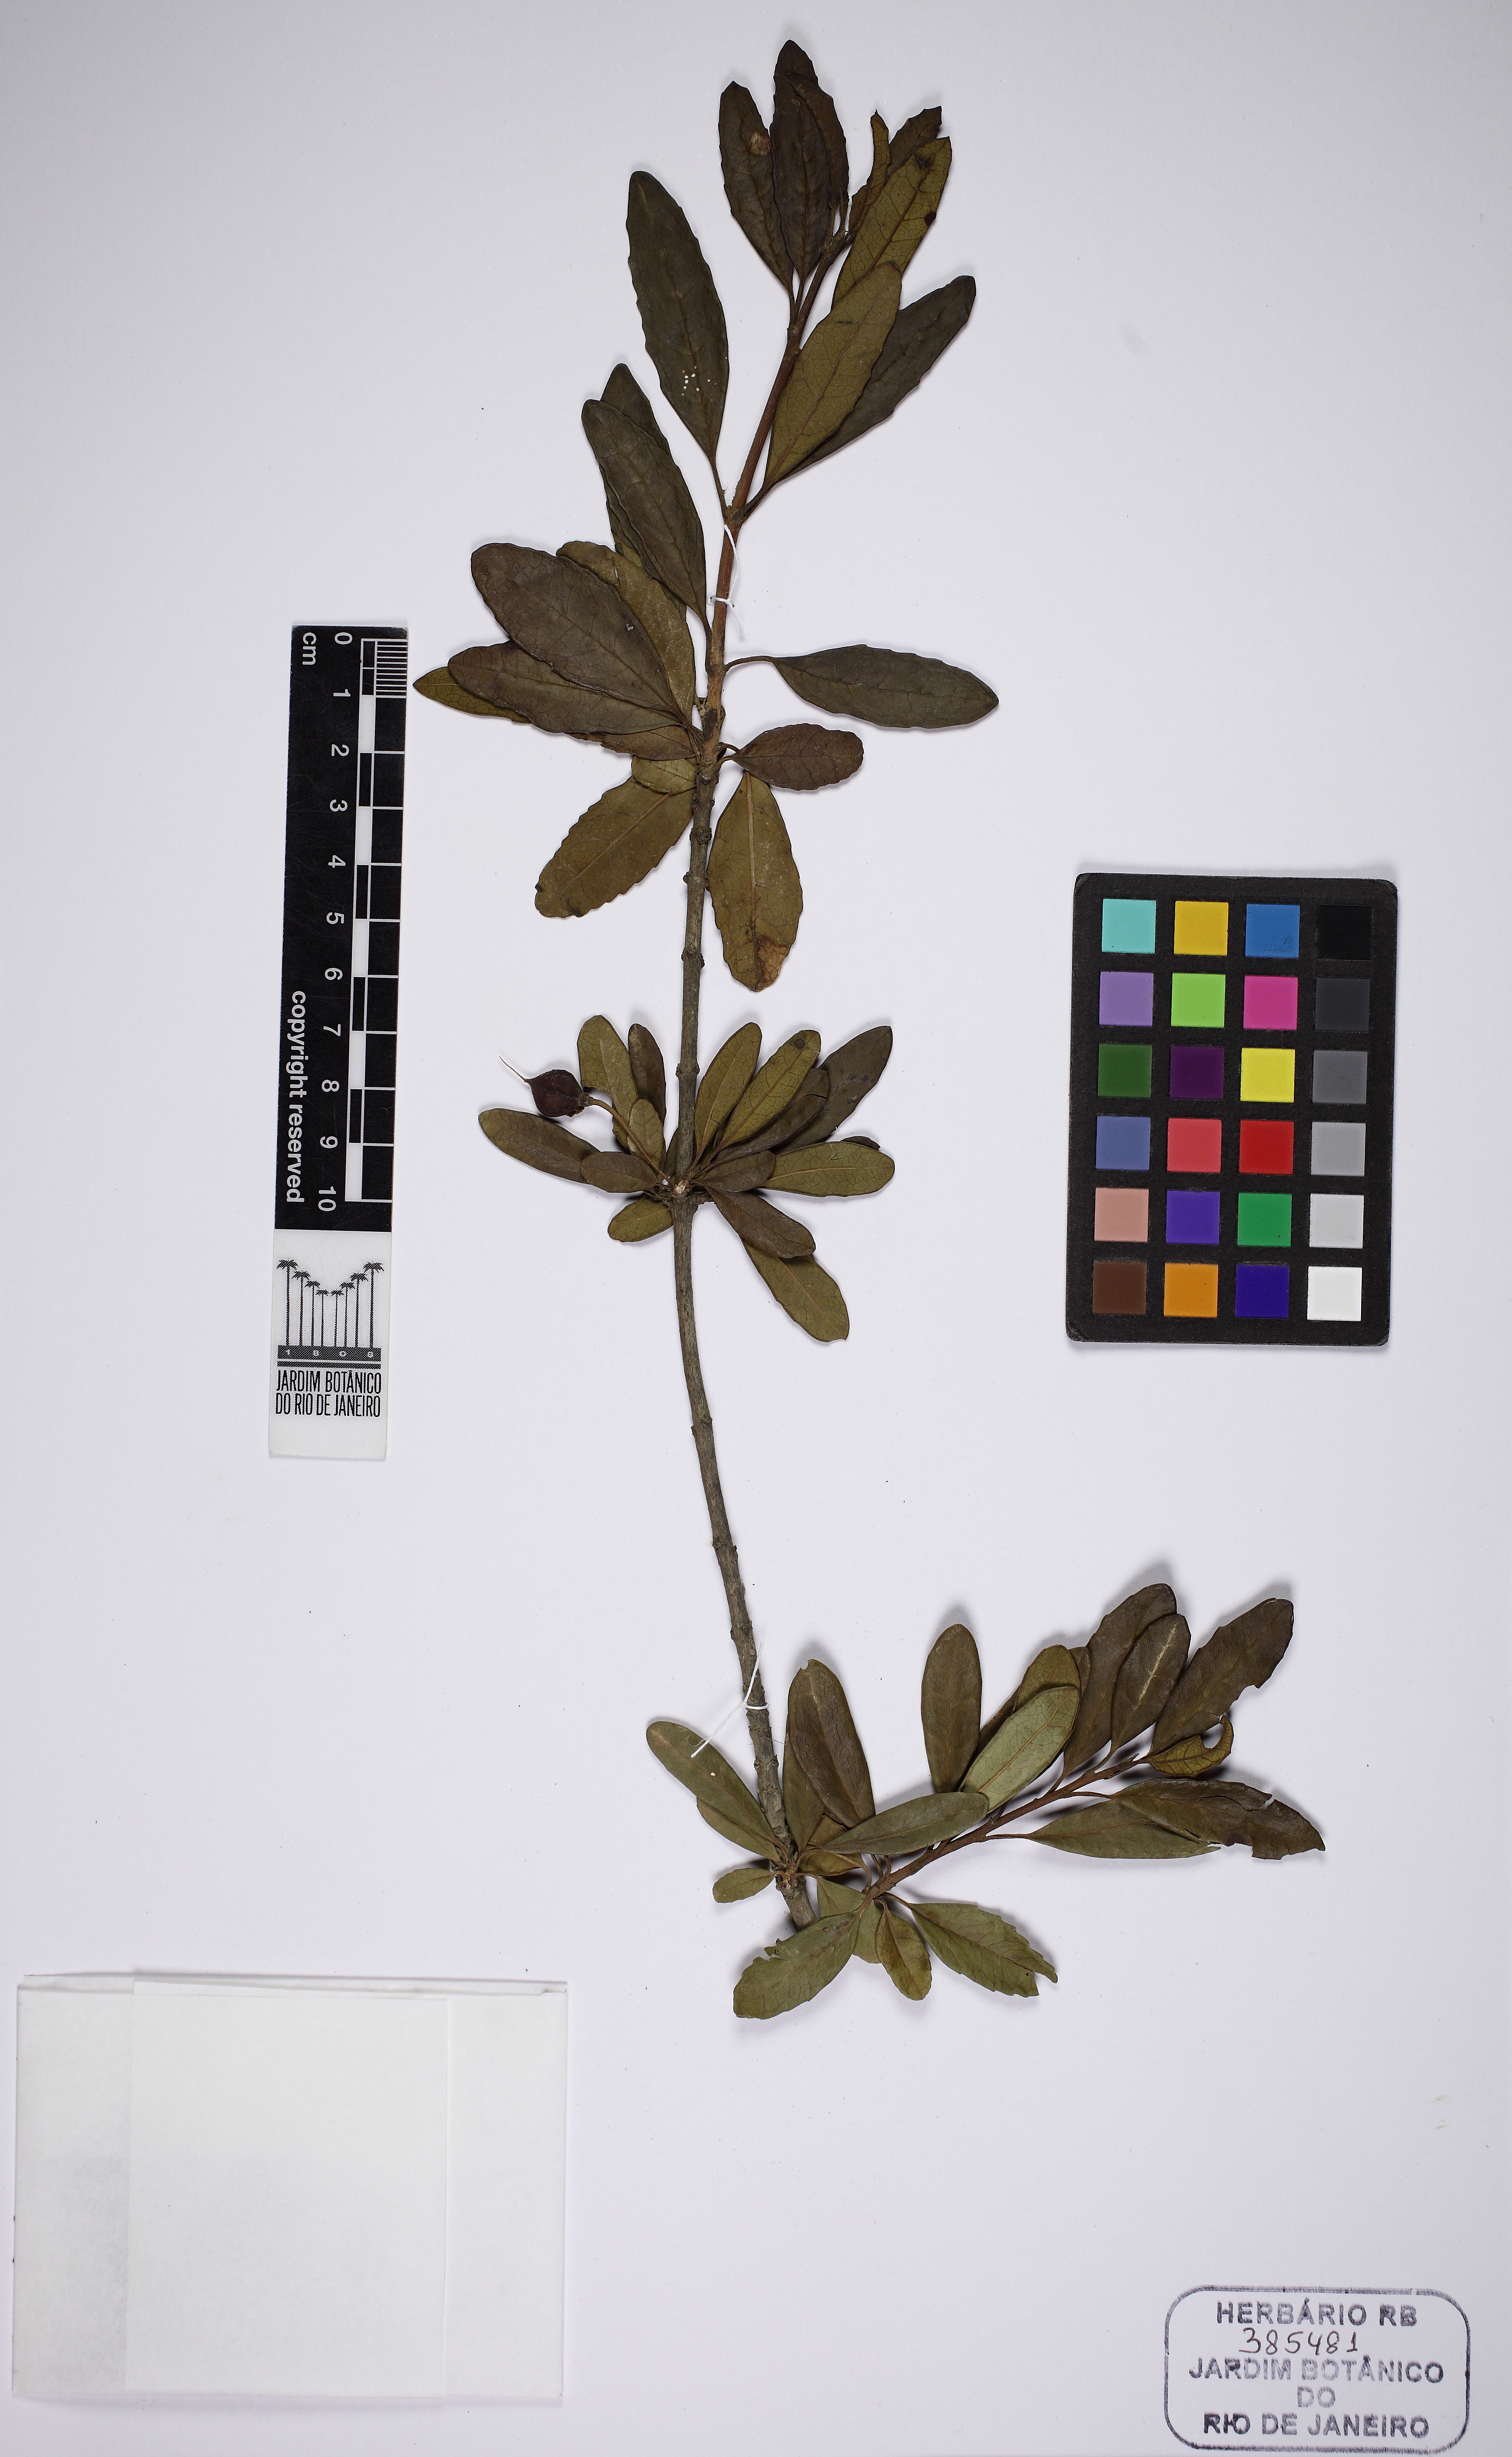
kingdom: Plantae
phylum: Tracheophyta
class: Magnoliopsida
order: Myrtales
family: Combretaceae
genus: Combretum
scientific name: Combretum
